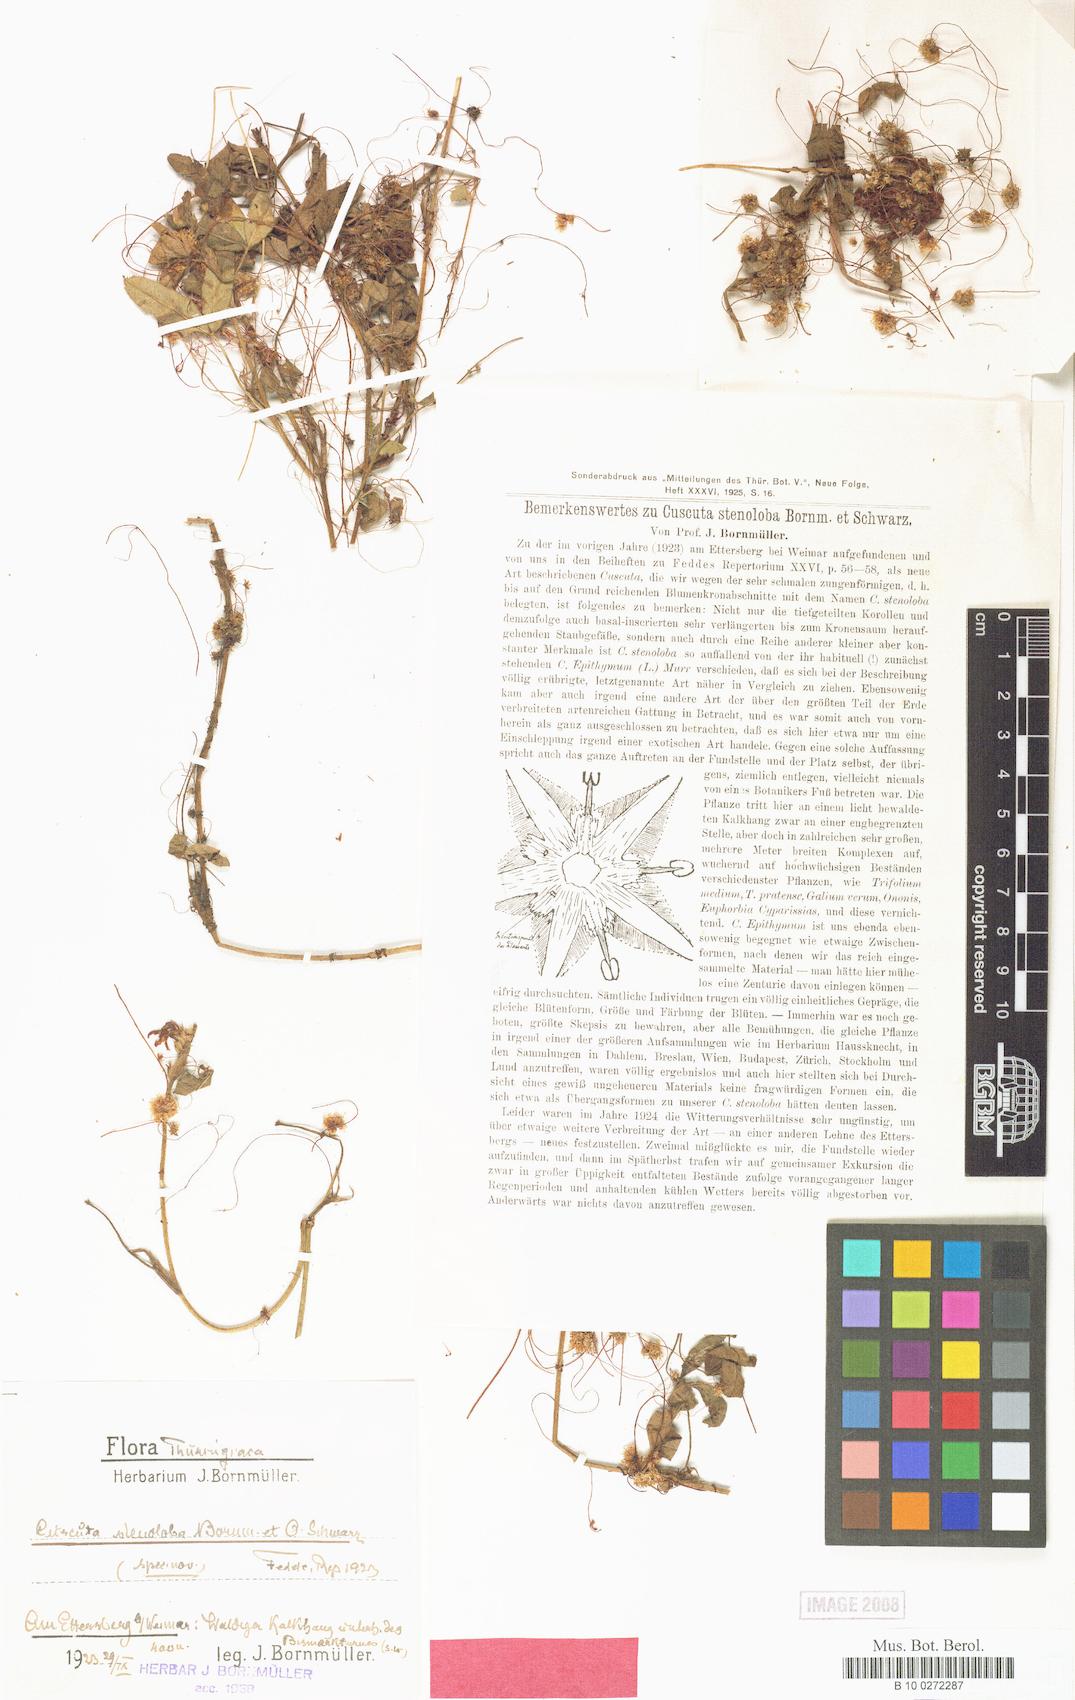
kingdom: Plantae
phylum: Tracheophyta
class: Magnoliopsida
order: Solanales
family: Convolvulaceae
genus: Cuscuta
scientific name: Cuscuta epithymum
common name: Clover dodder
